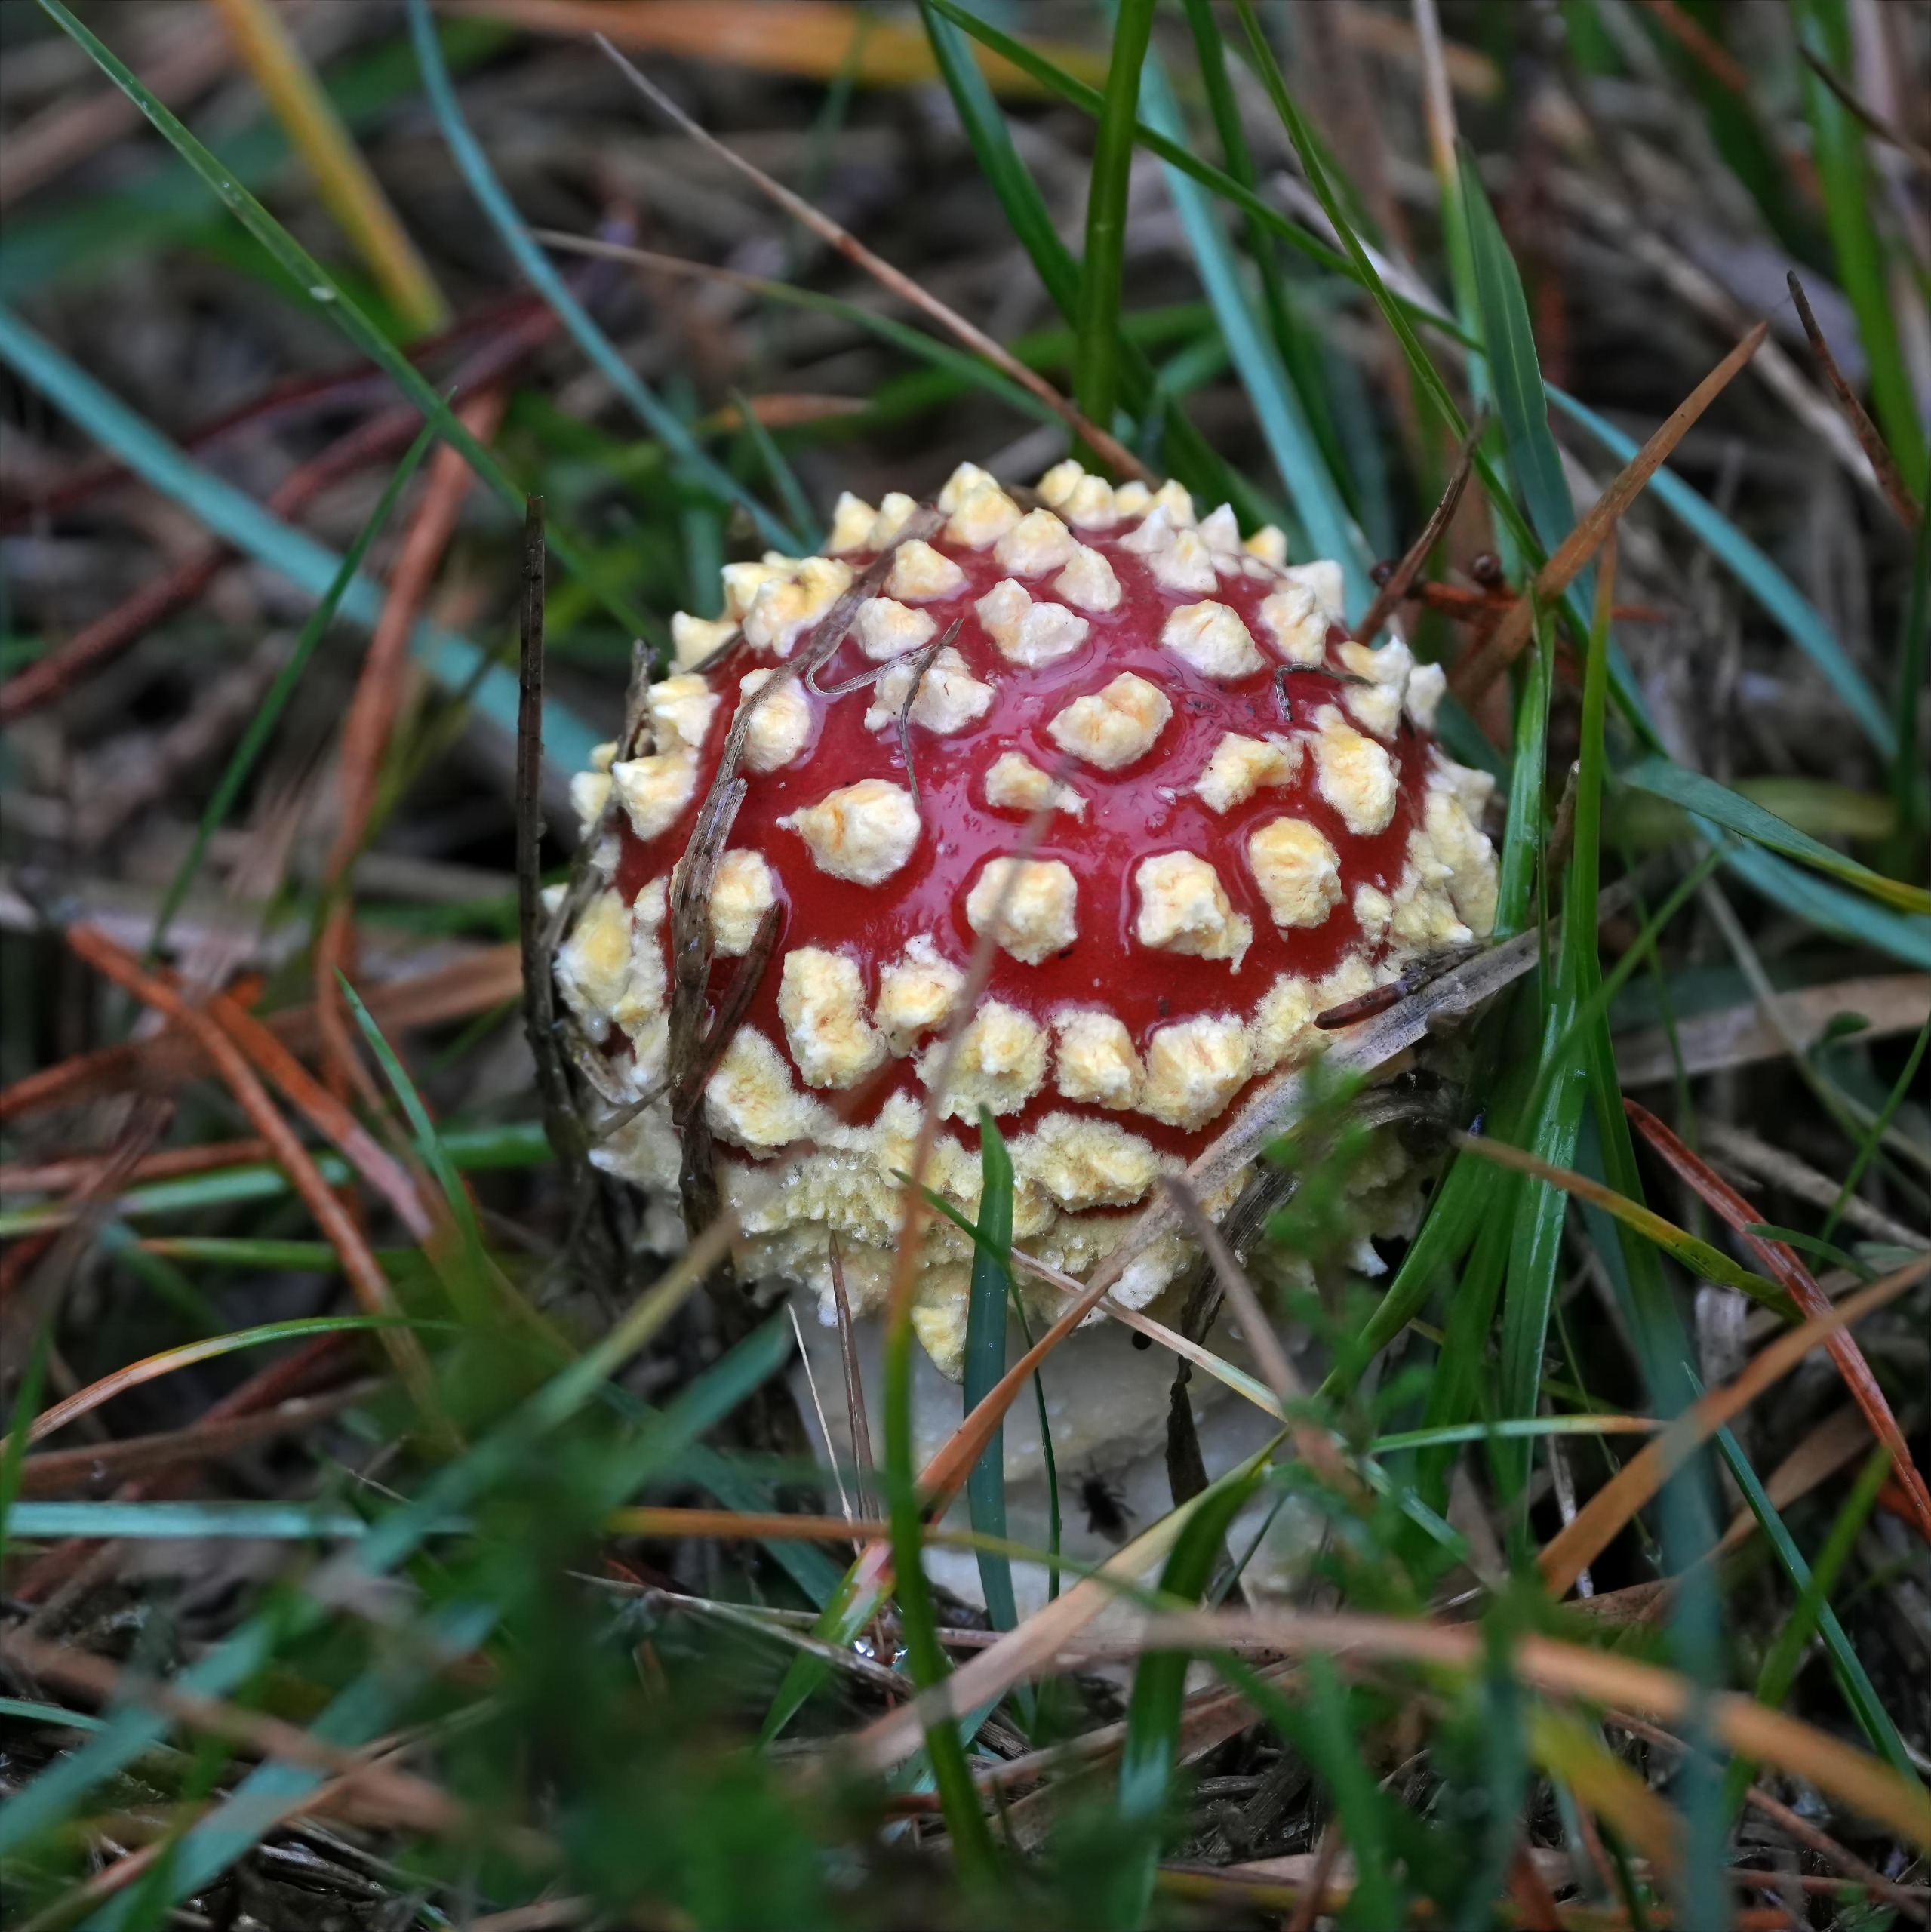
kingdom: Fungi
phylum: Basidiomycota
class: Agaricomycetes
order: Agaricales
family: Amanitaceae
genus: Amanita
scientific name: Amanita muscaria
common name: Rød fluesvamp
